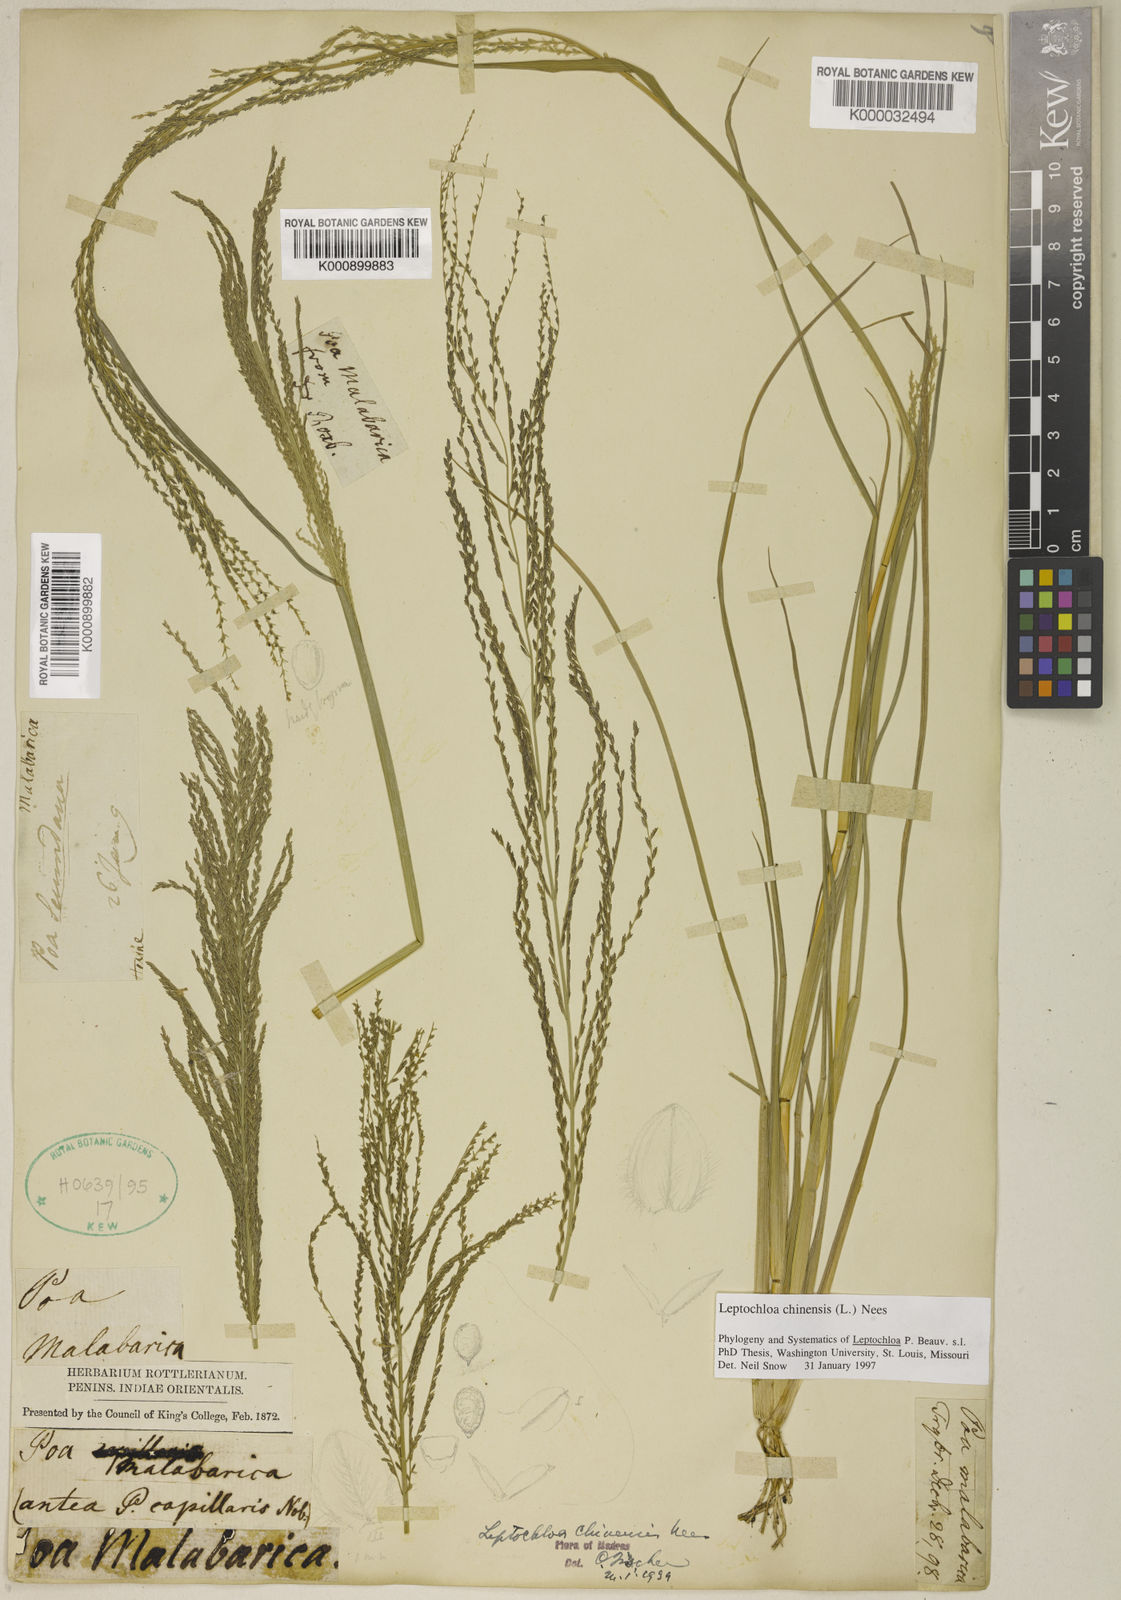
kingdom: Plantae
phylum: Tracheophyta
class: Liliopsida
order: Poales
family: Poaceae
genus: Leptochloa
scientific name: Leptochloa chinensis
